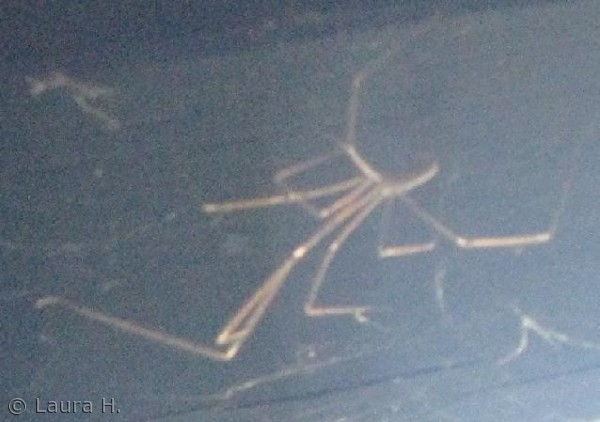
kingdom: Animalia
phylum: Arthropoda
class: Arachnida
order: Araneae
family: Pholcidae
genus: Pholcus
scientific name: Pholcus phalangioides
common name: Mejeredderkop
